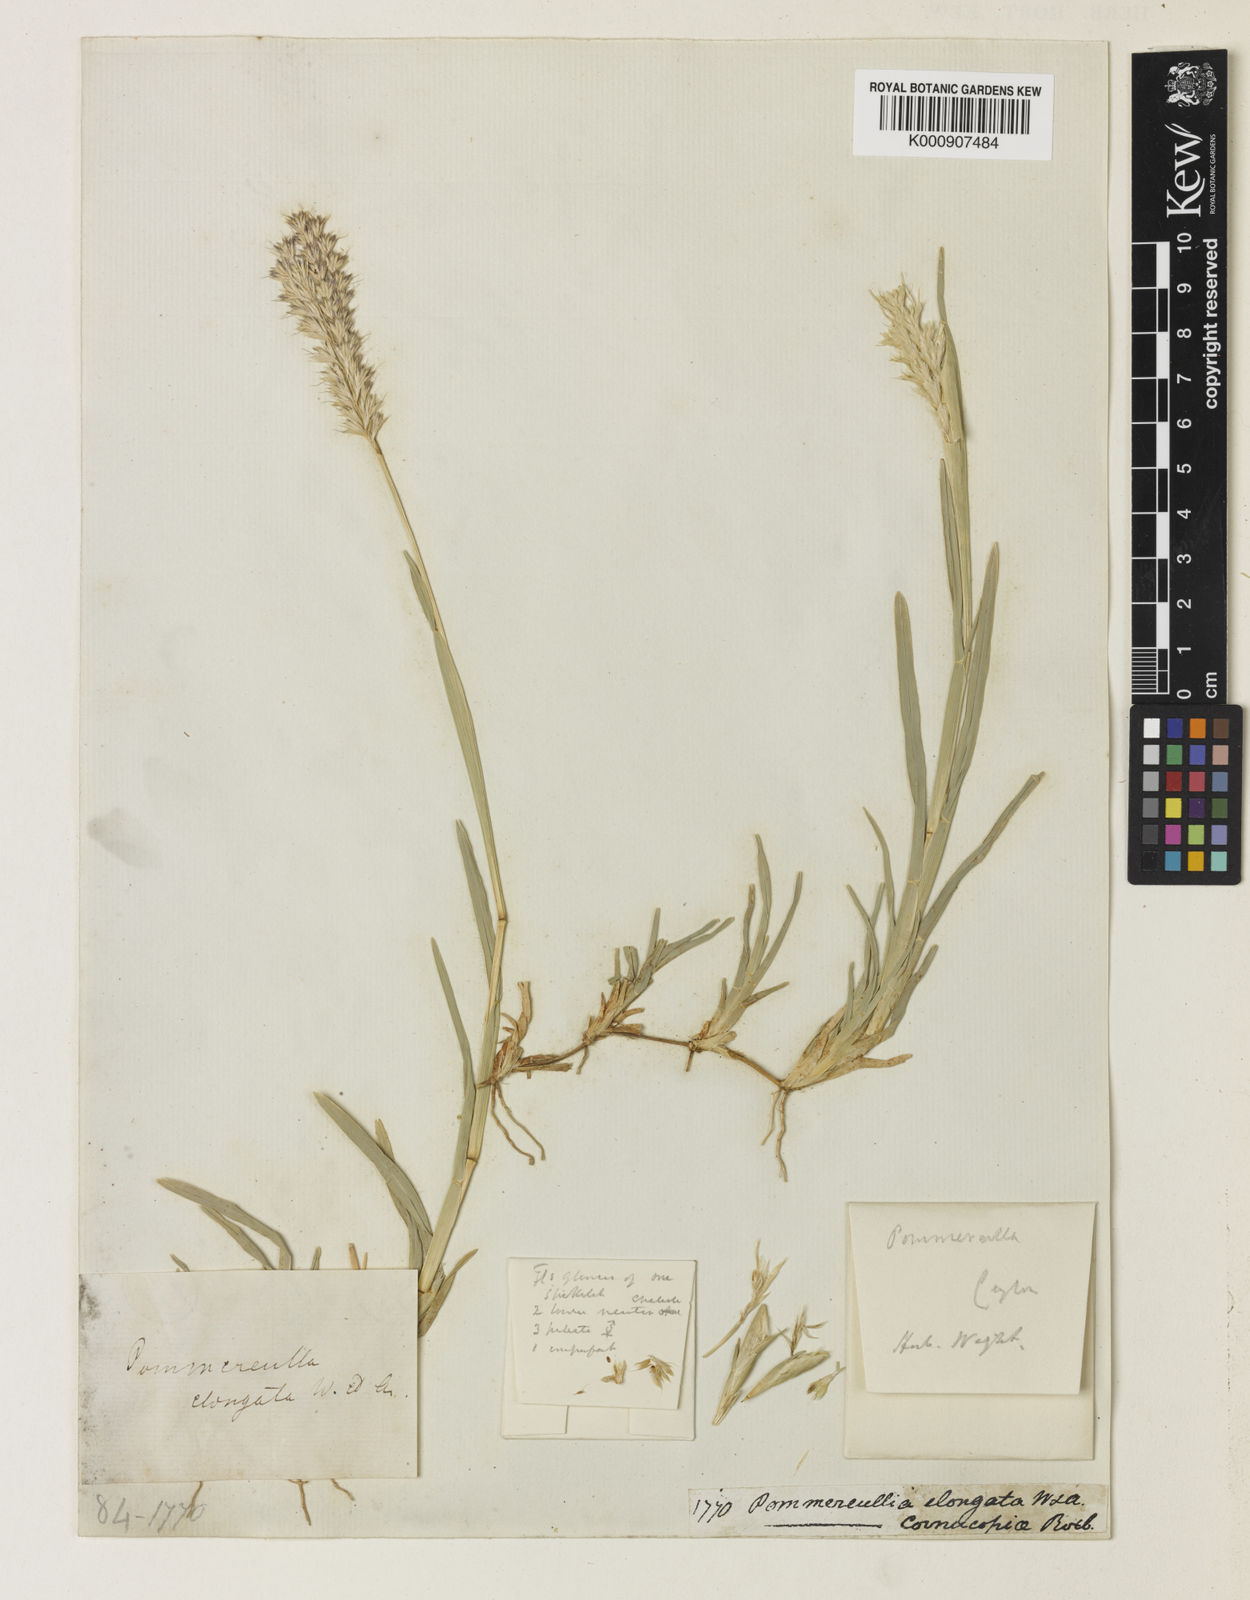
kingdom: Plantae
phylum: Tracheophyta
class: Liliopsida
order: Poales
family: Poaceae
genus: Pommereulla
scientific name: Pommereulla cornucopiae
